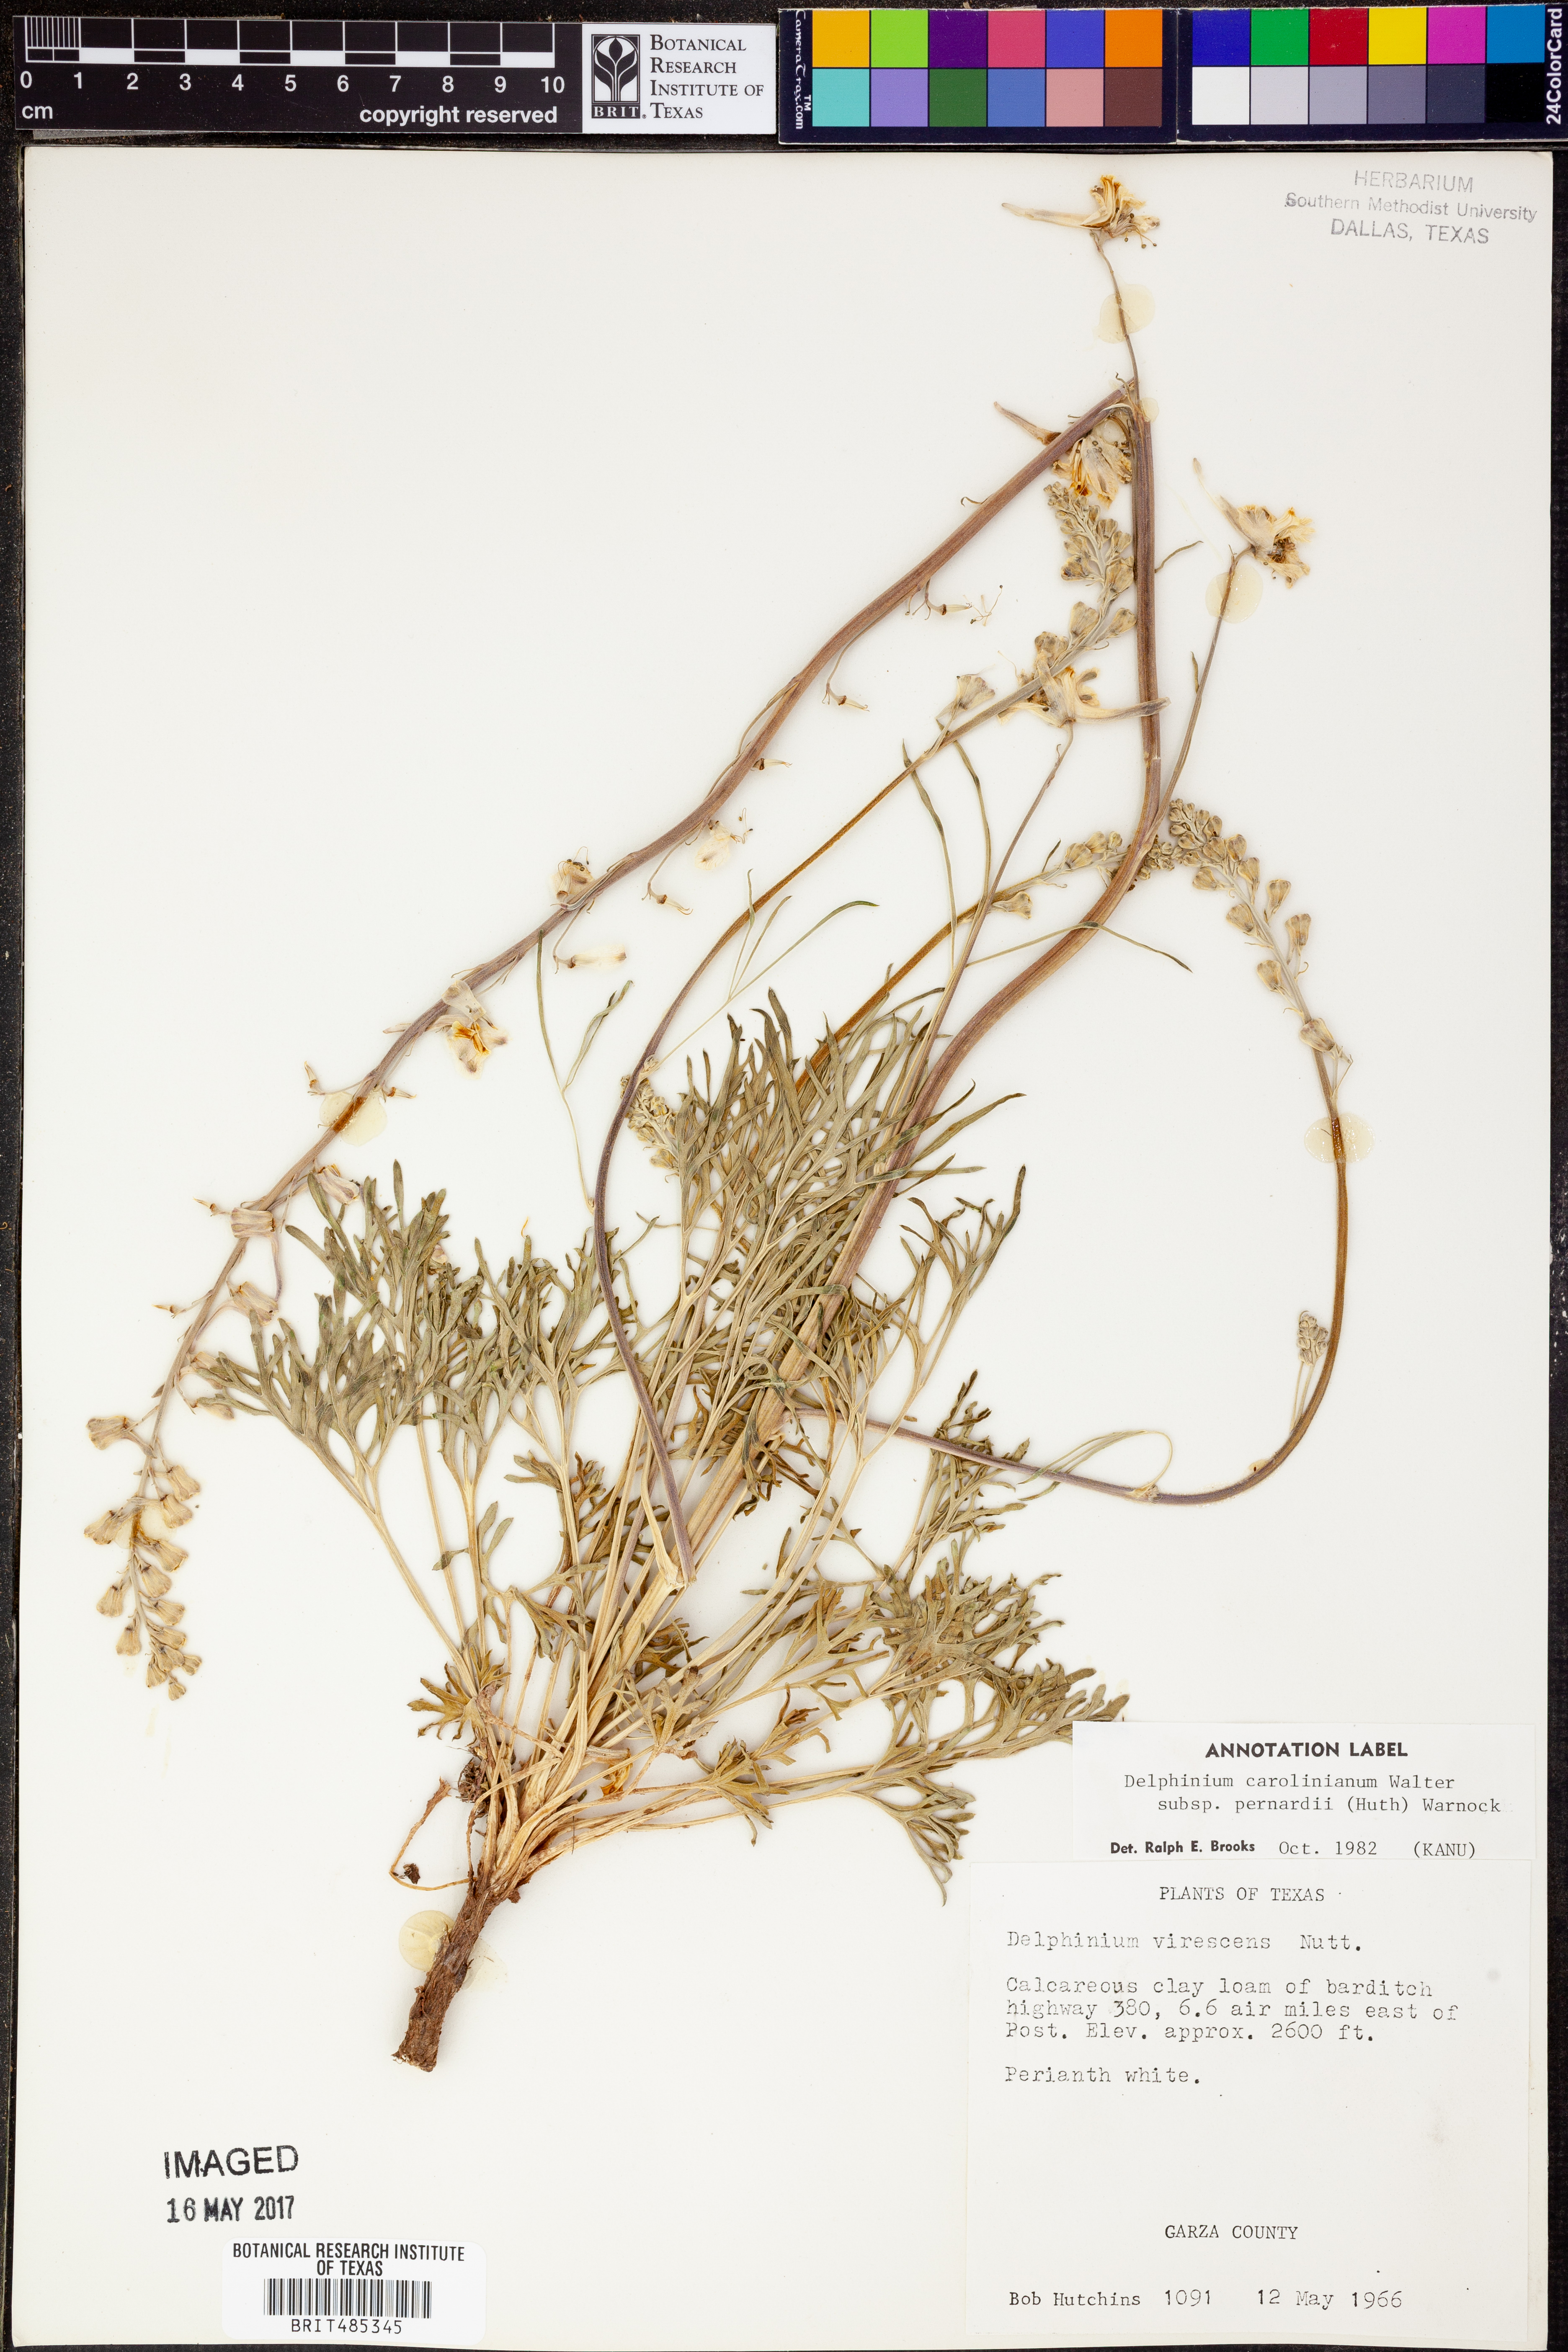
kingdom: Plantae
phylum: Tracheophyta
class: Magnoliopsida
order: Ranunculales
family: Ranunculaceae
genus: Delphinium
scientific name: Delphinium carolinianum
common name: Carolina larkspur
